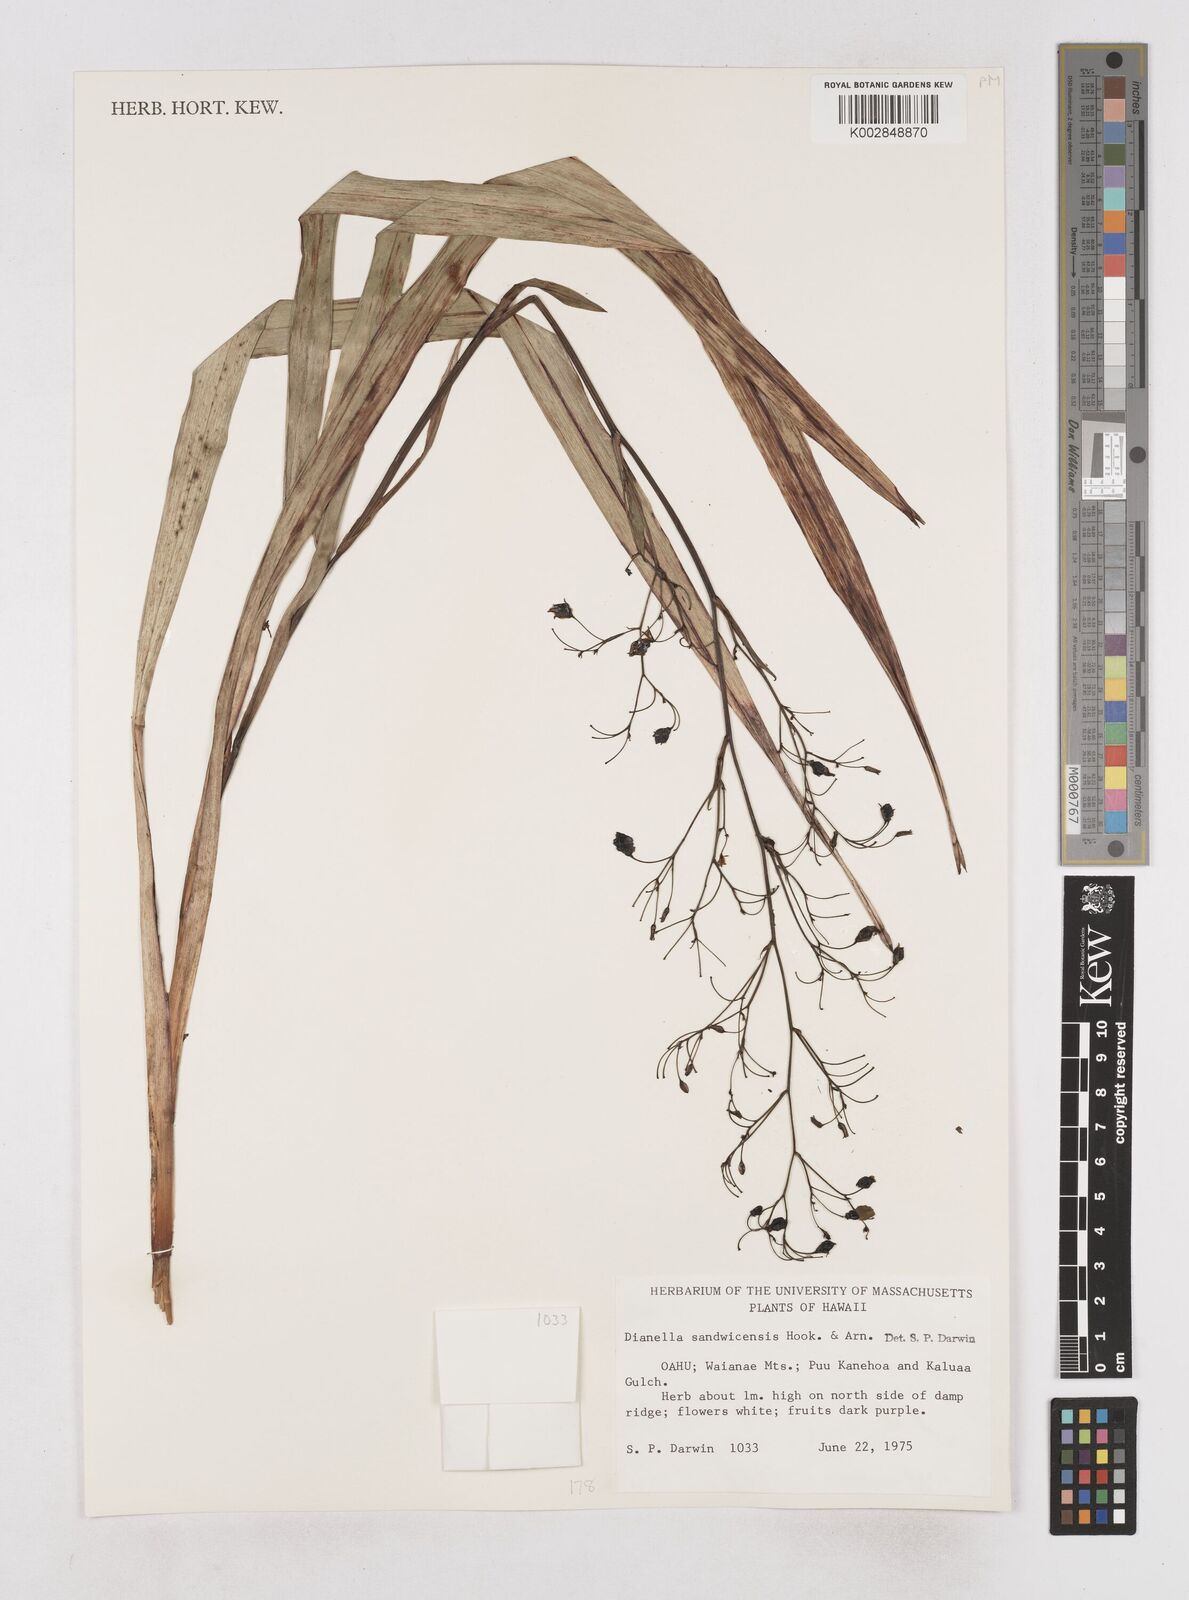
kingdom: Plantae
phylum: Tracheophyta
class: Liliopsida
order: Asparagales
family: Asphodelaceae
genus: Dianella
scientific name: Dianella sandwicensis
